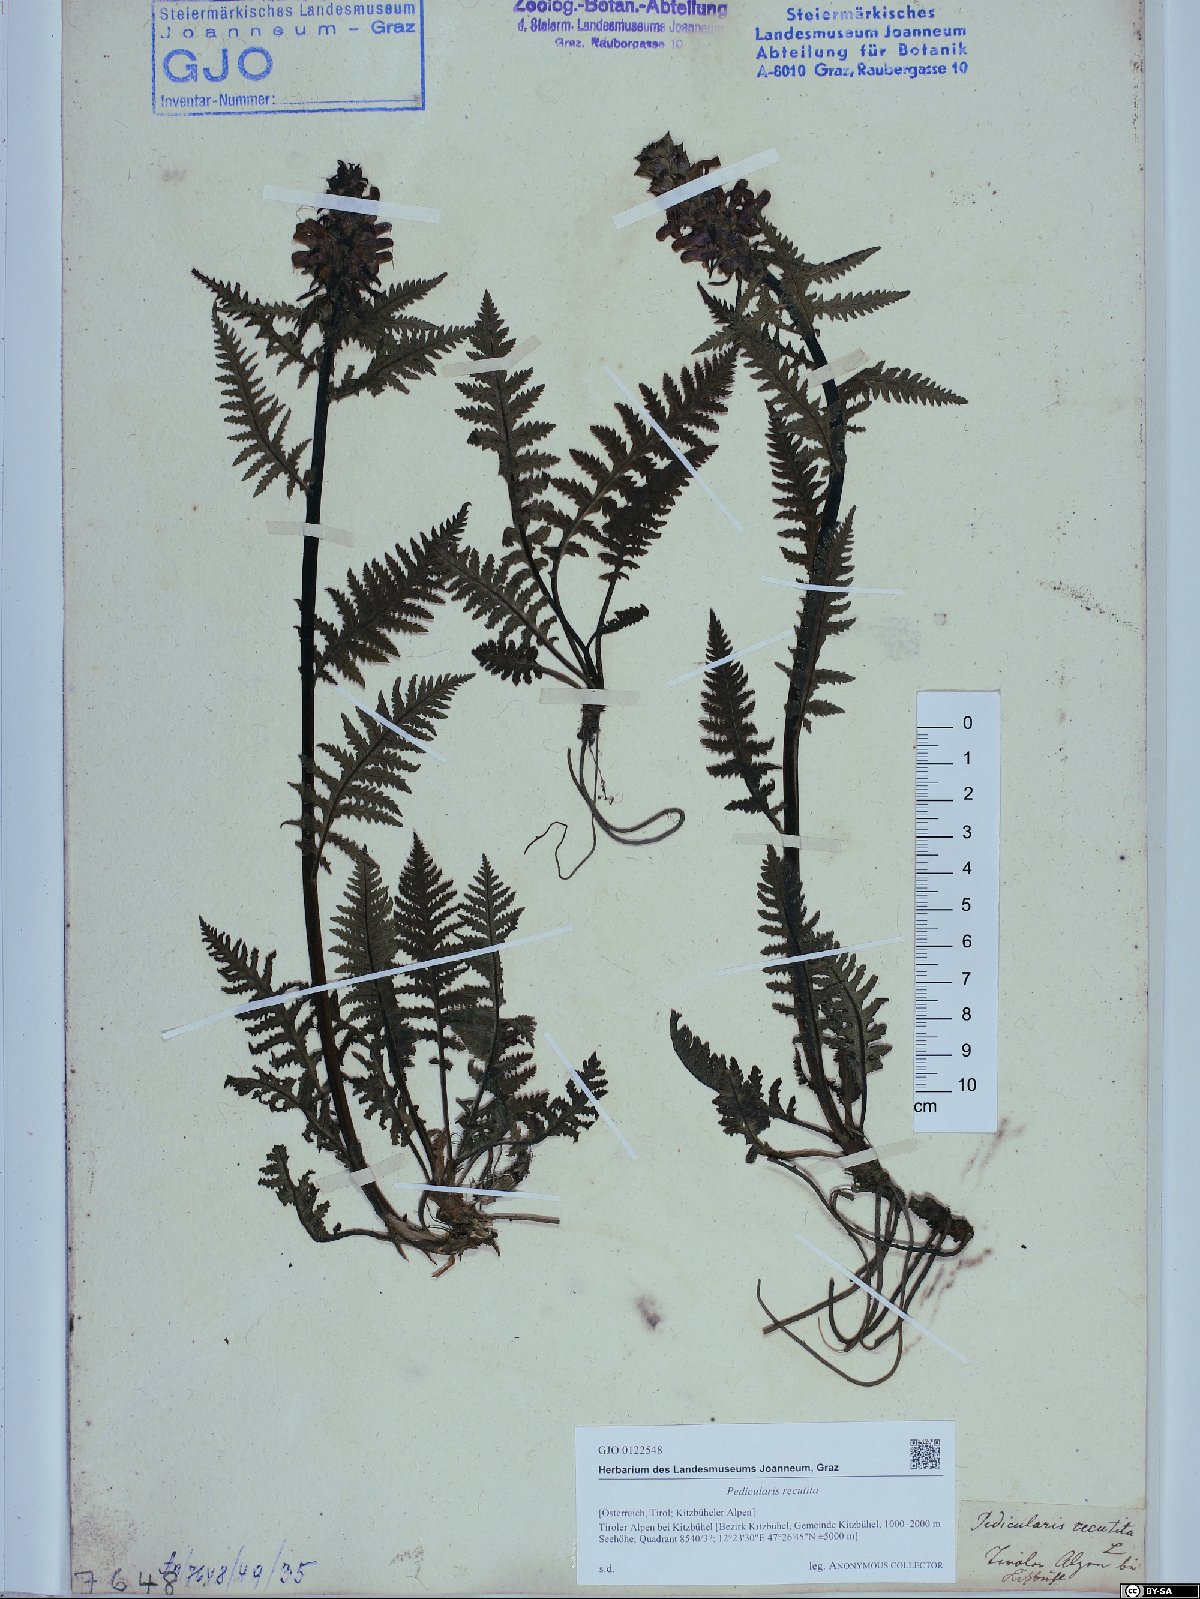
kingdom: Plantae
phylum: Tracheophyta
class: Magnoliopsida
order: Lamiales
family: Orobanchaceae
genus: Pedicularis
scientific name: Pedicularis recutita
